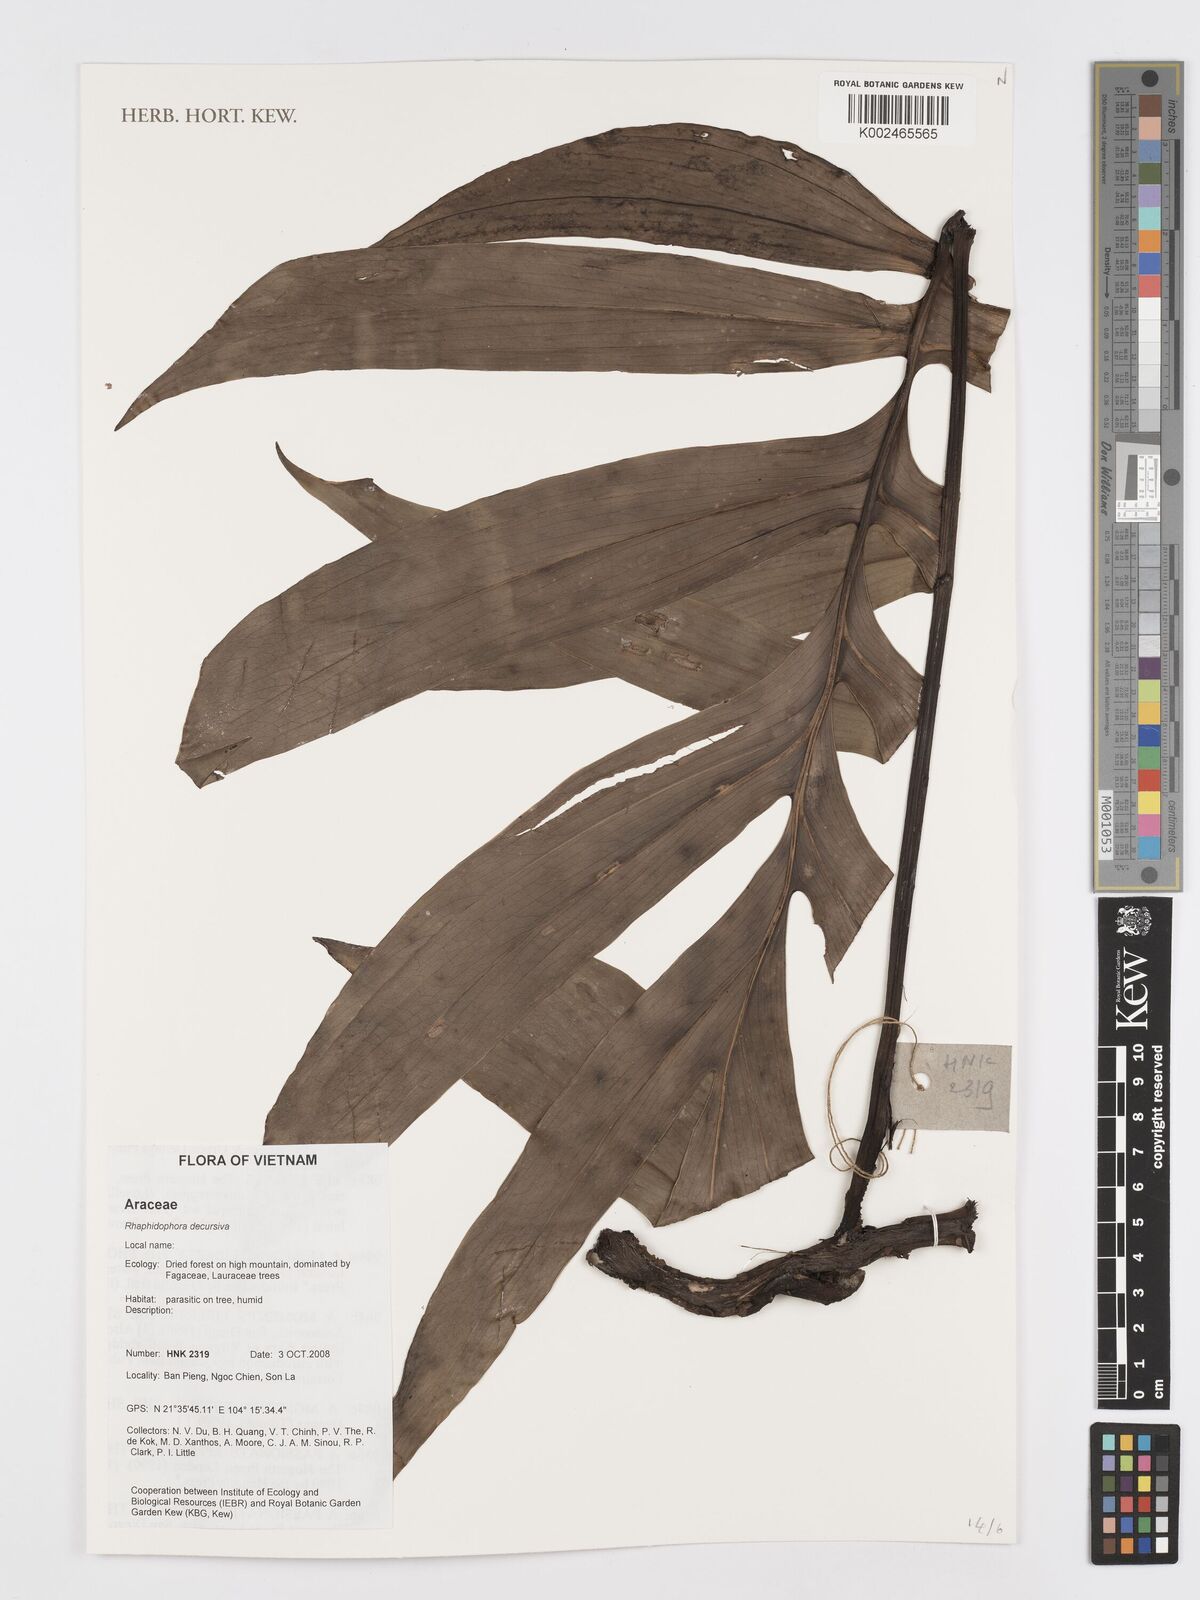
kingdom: Plantae
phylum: Tracheophyta
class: Liliopsida
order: Alismatales
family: Araceae
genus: Rhaphidophora
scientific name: Rhaphidophora decursiva
